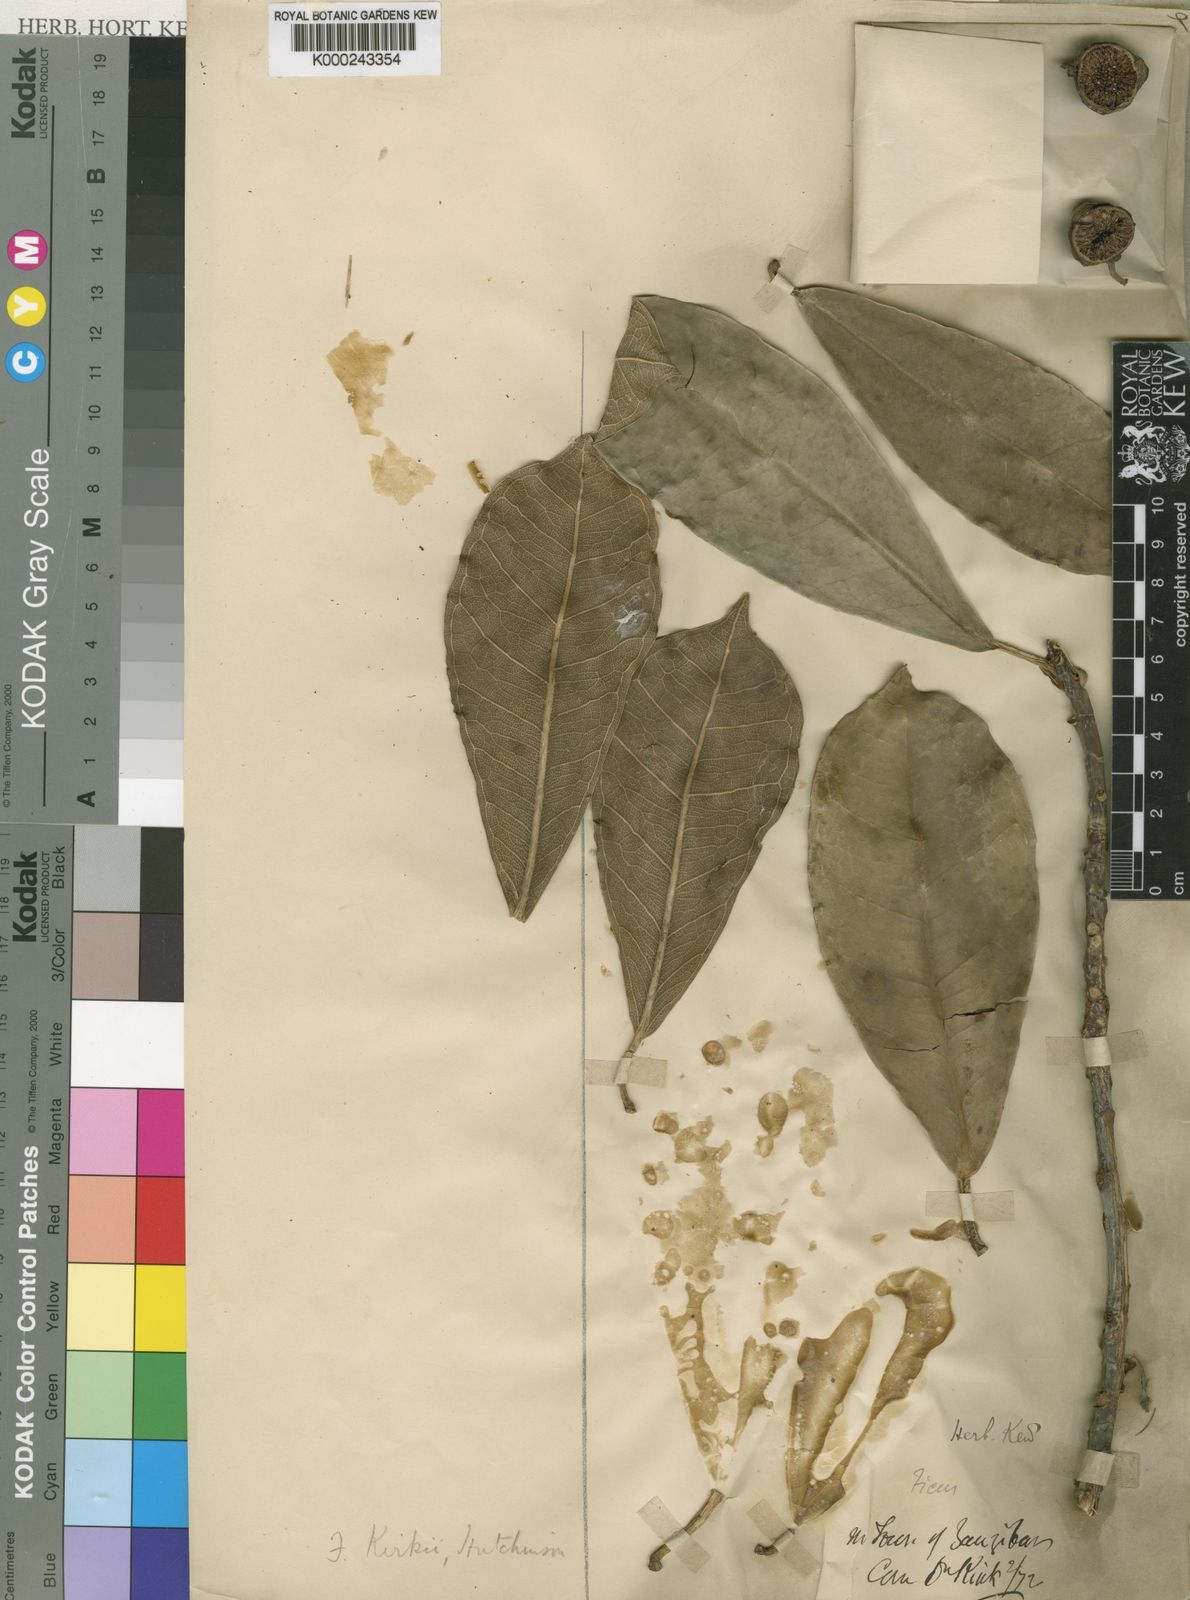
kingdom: Plantae
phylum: Tracheophyta
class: Magnoliopsida
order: Rosales
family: Moraceae
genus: Ficus
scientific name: Ficus
